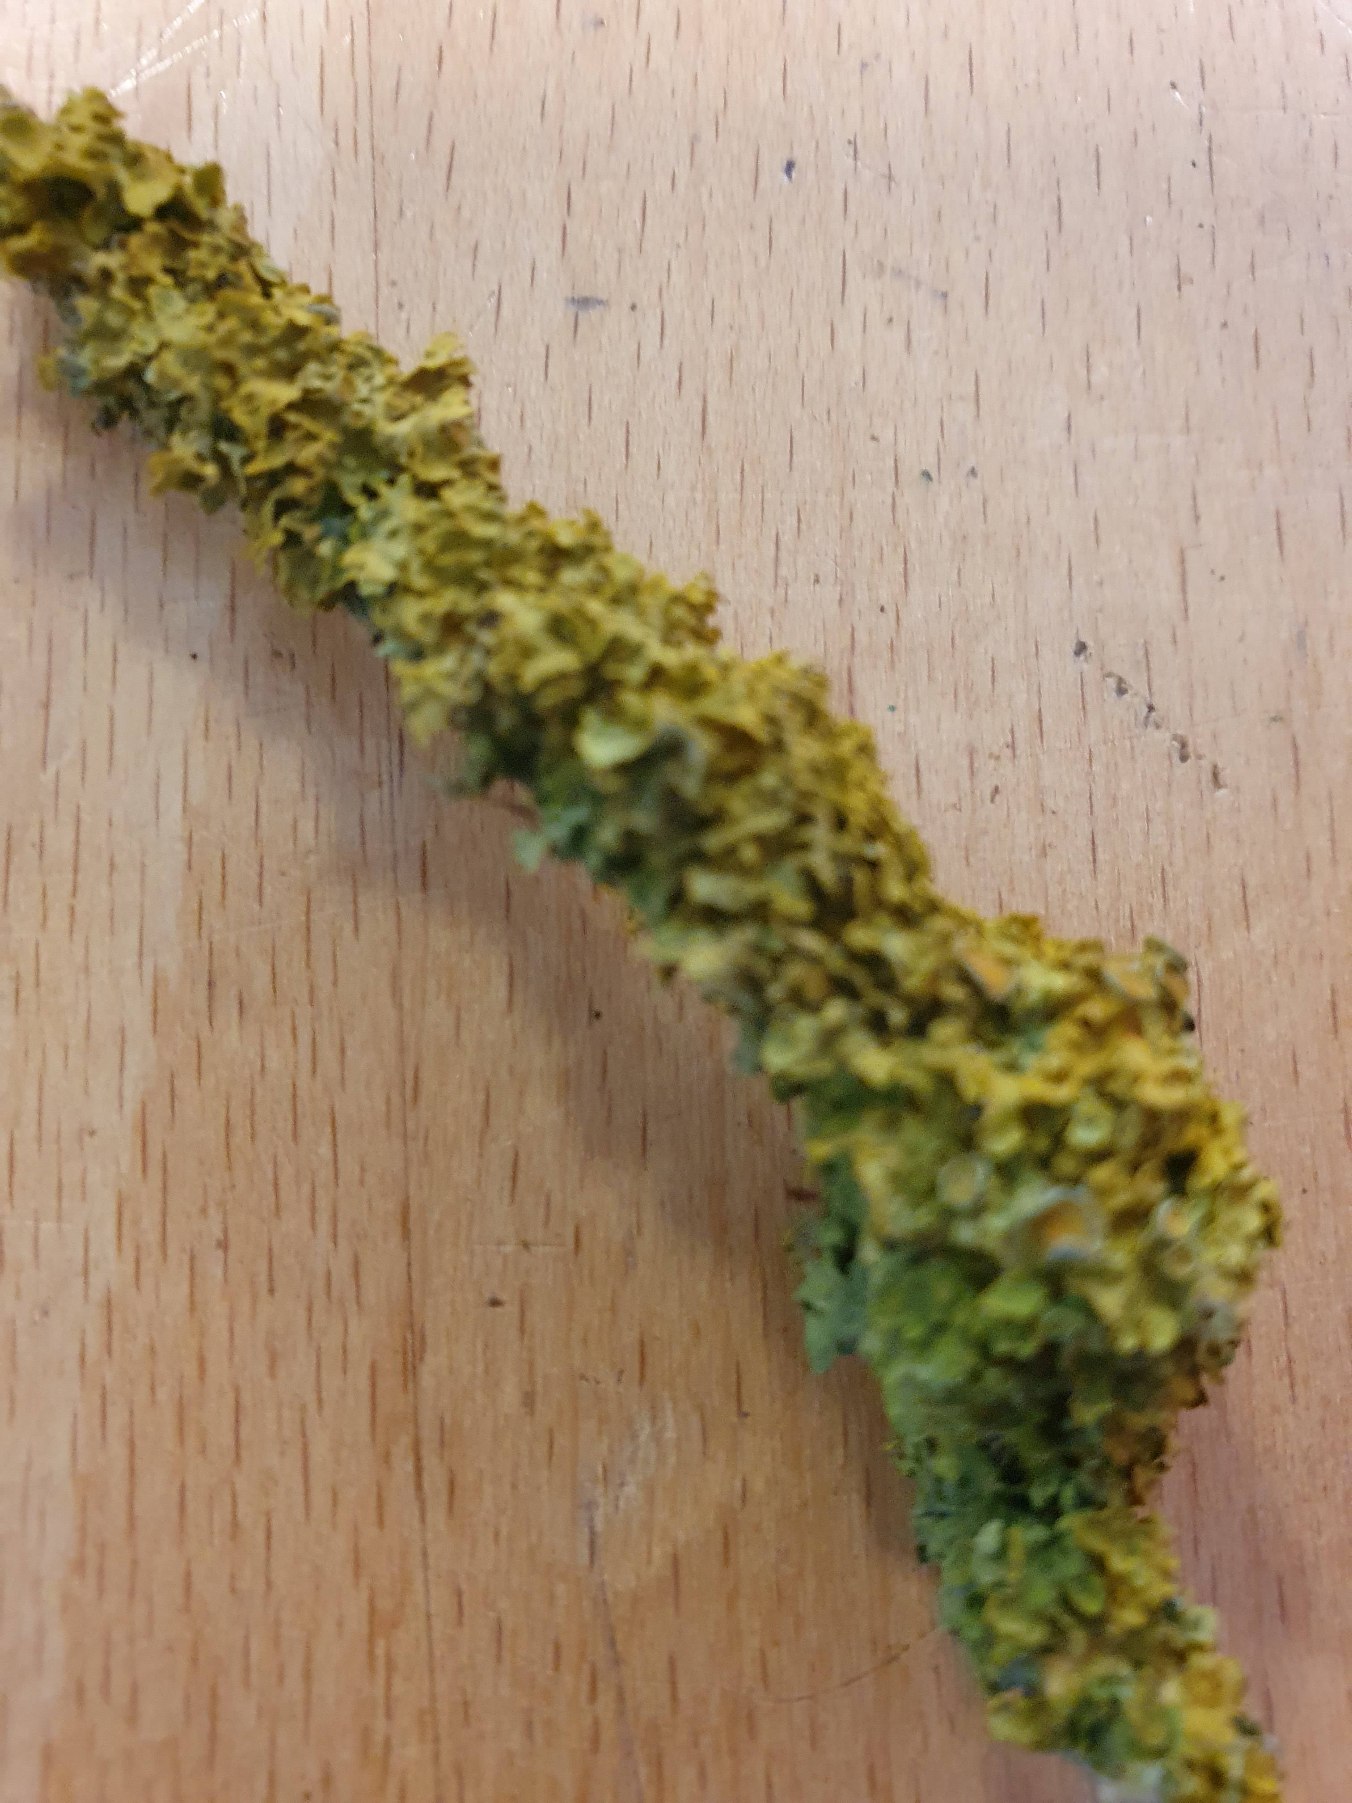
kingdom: Fungi
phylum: Ascomycota
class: Lecanoromycetes
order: Teloschistales
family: Teloschistaceae
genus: Xanthoria
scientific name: Xanthoria parietina
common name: Almindelig væggelav
